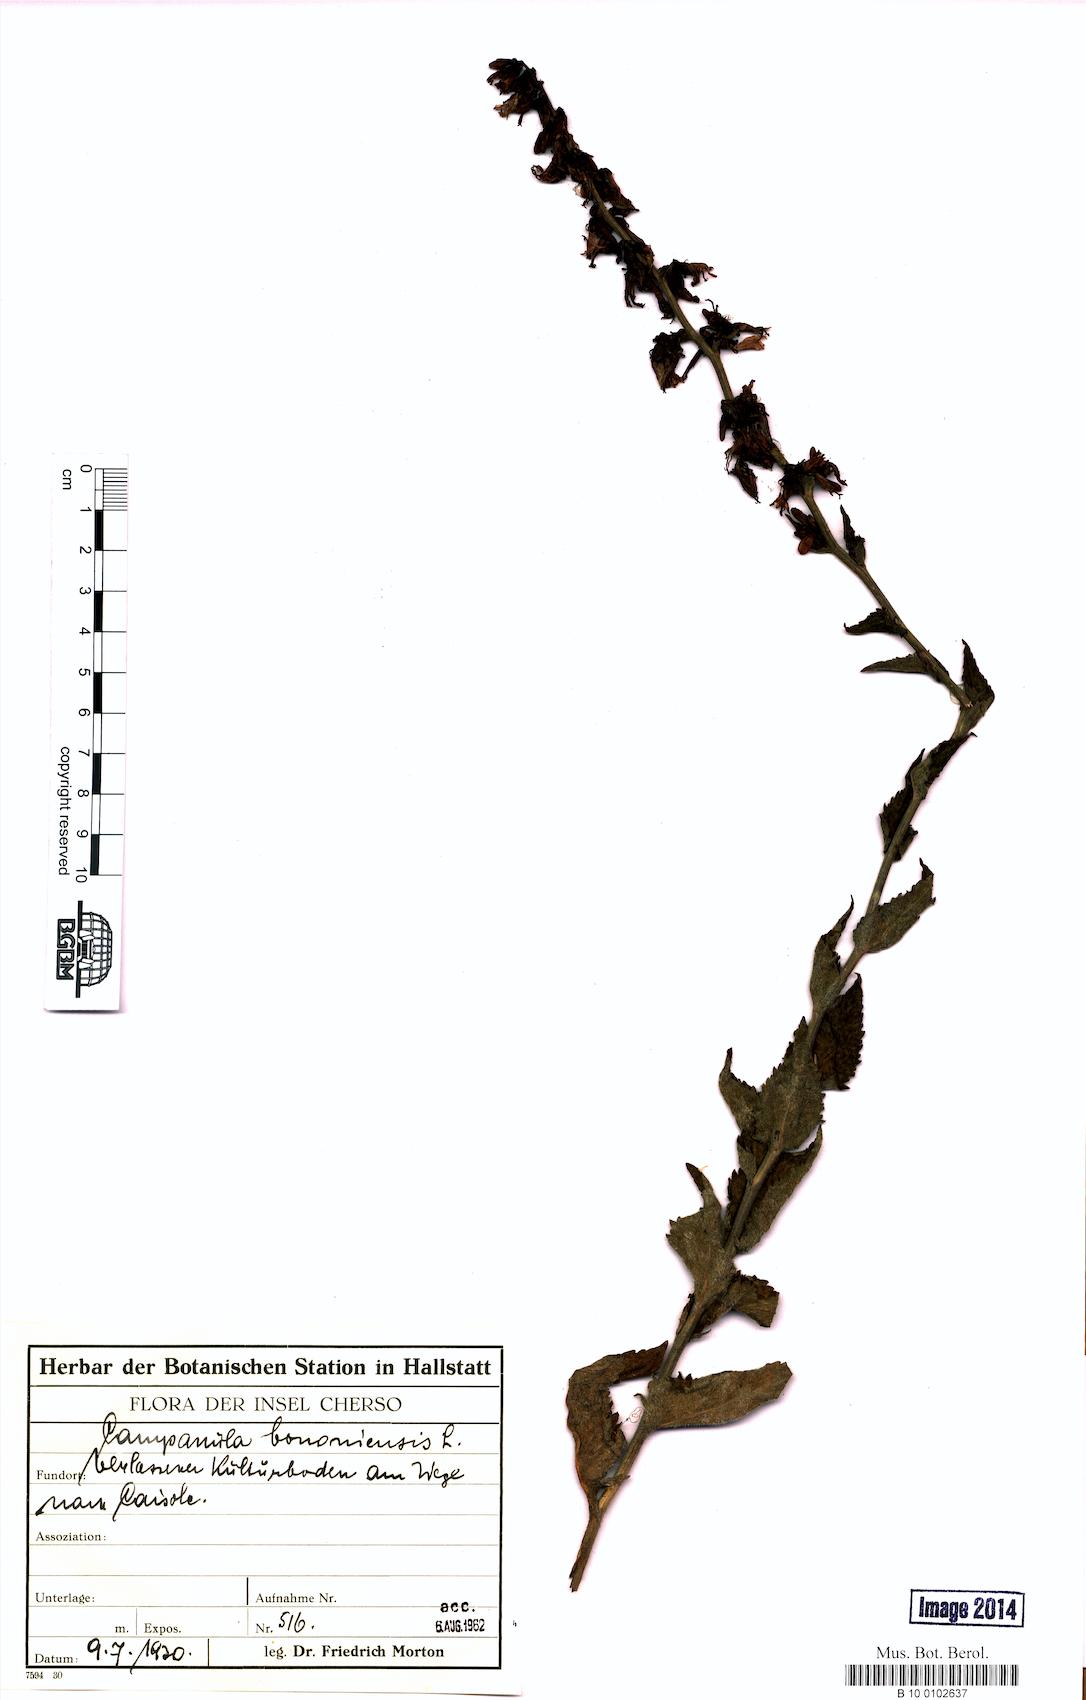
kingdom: Plantae
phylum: Tracheophyta
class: Magnoliopsida
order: Asterales
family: Campanulaceae
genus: Campanula
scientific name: Campanula bononiensis
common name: Pale bellflower
